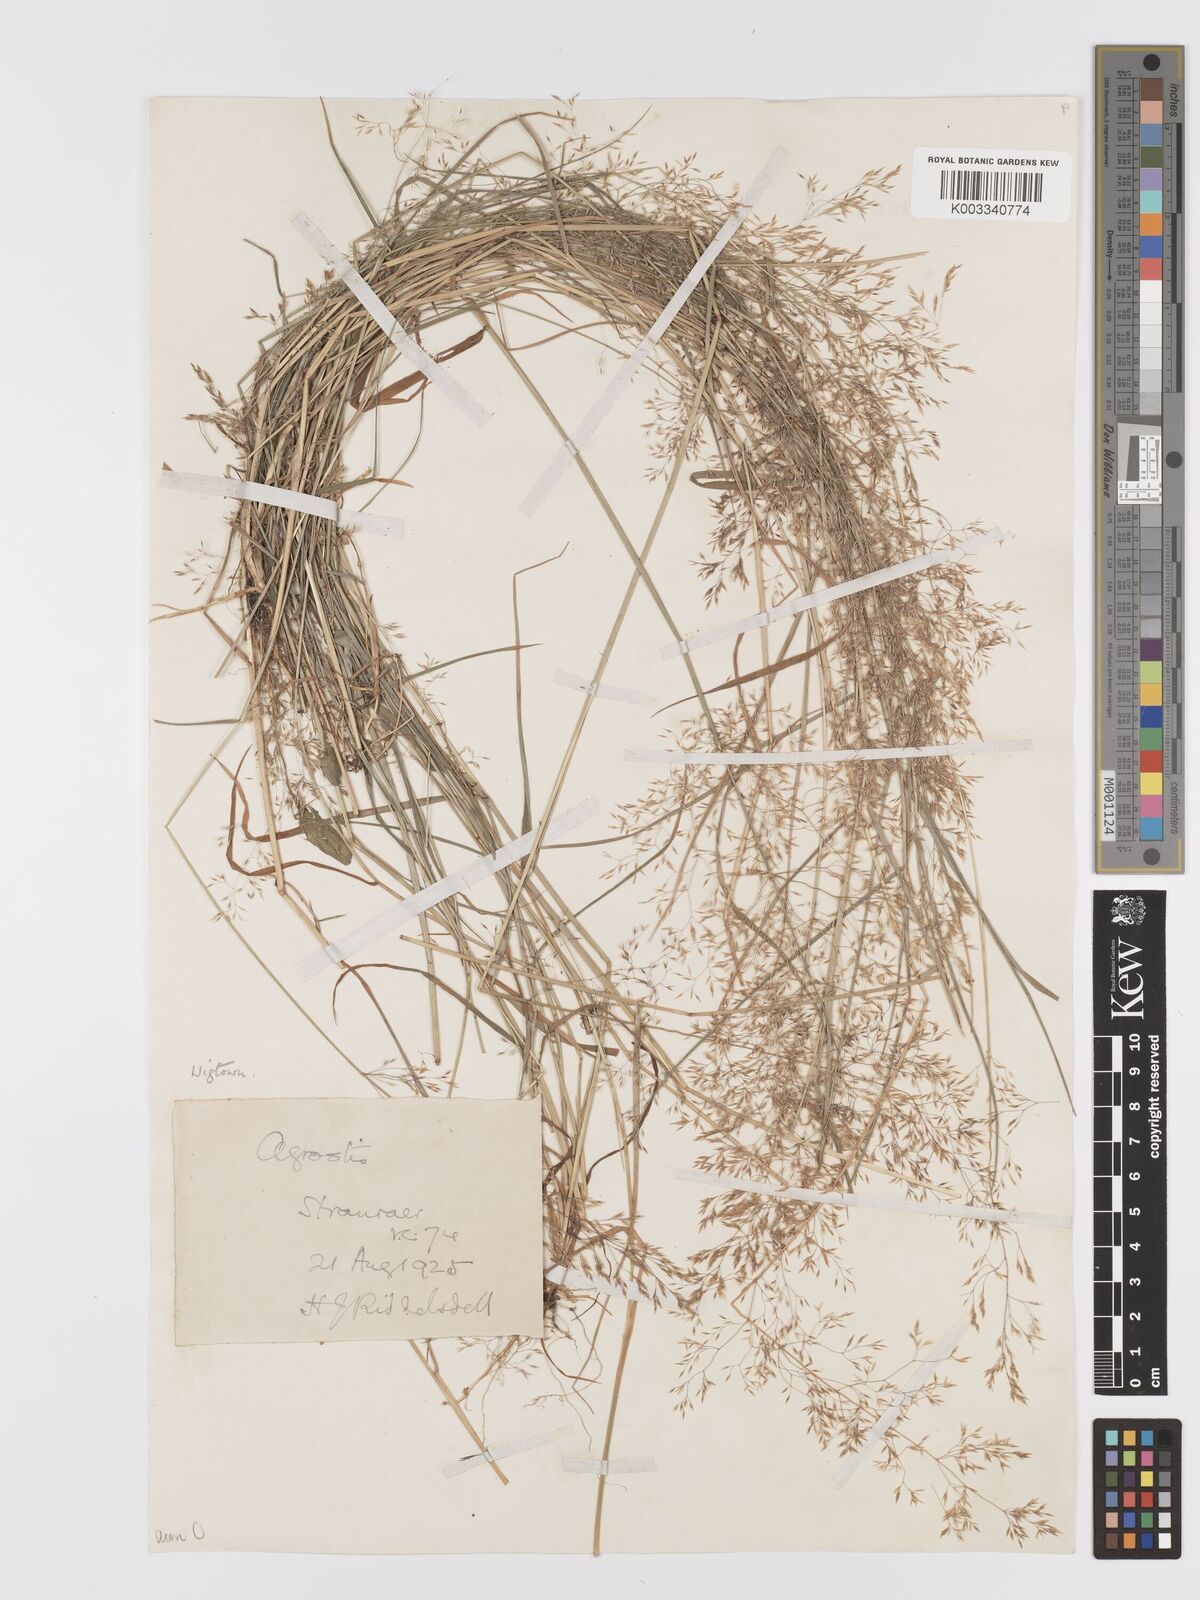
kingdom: Plantae
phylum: Tracheophyta
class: Liliopsida
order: Poales
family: Poaceae
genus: Agrostis
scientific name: Agrostis capillaris
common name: Colonial bentgrass
